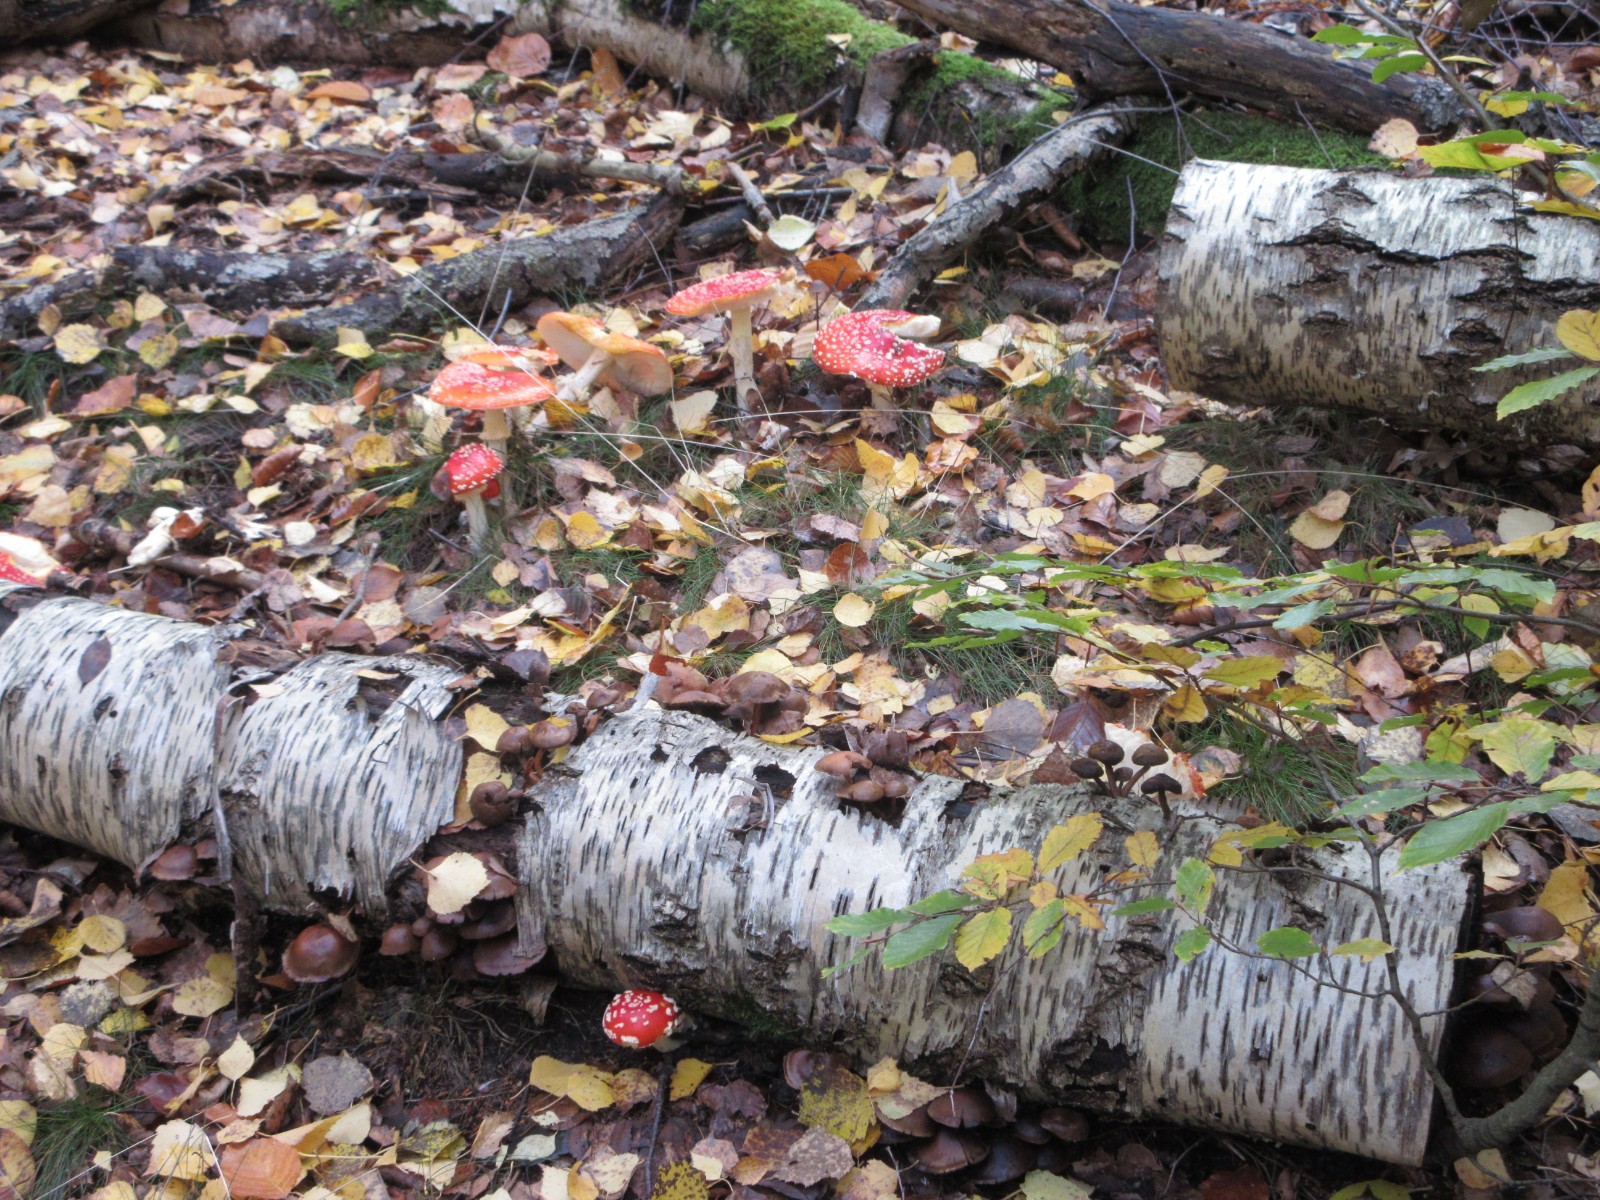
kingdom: Fungi
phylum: Basidiomycota
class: Agaricomycetes
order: Agaricales
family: Amanitaceae
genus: Amanita
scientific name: Amanita muscaria
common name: rød fluesvamp
